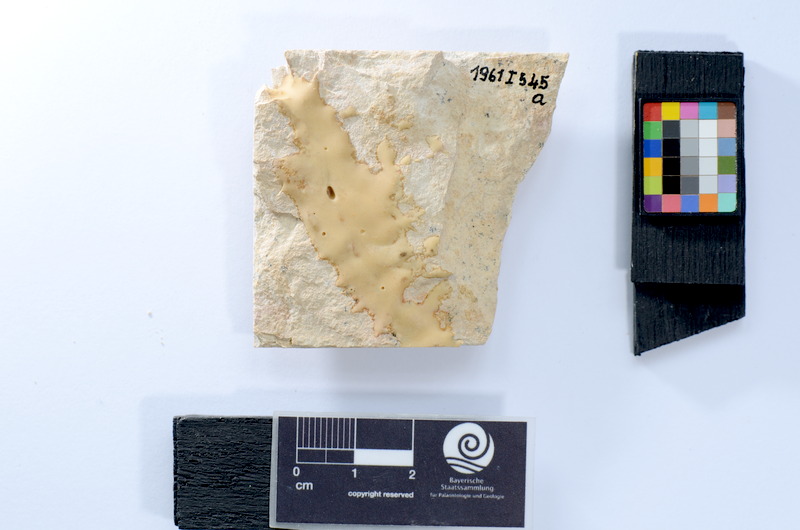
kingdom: Animalia
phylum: Chordata
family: Ascalaboidae
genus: Tharsis
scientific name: Tharsis dubius
